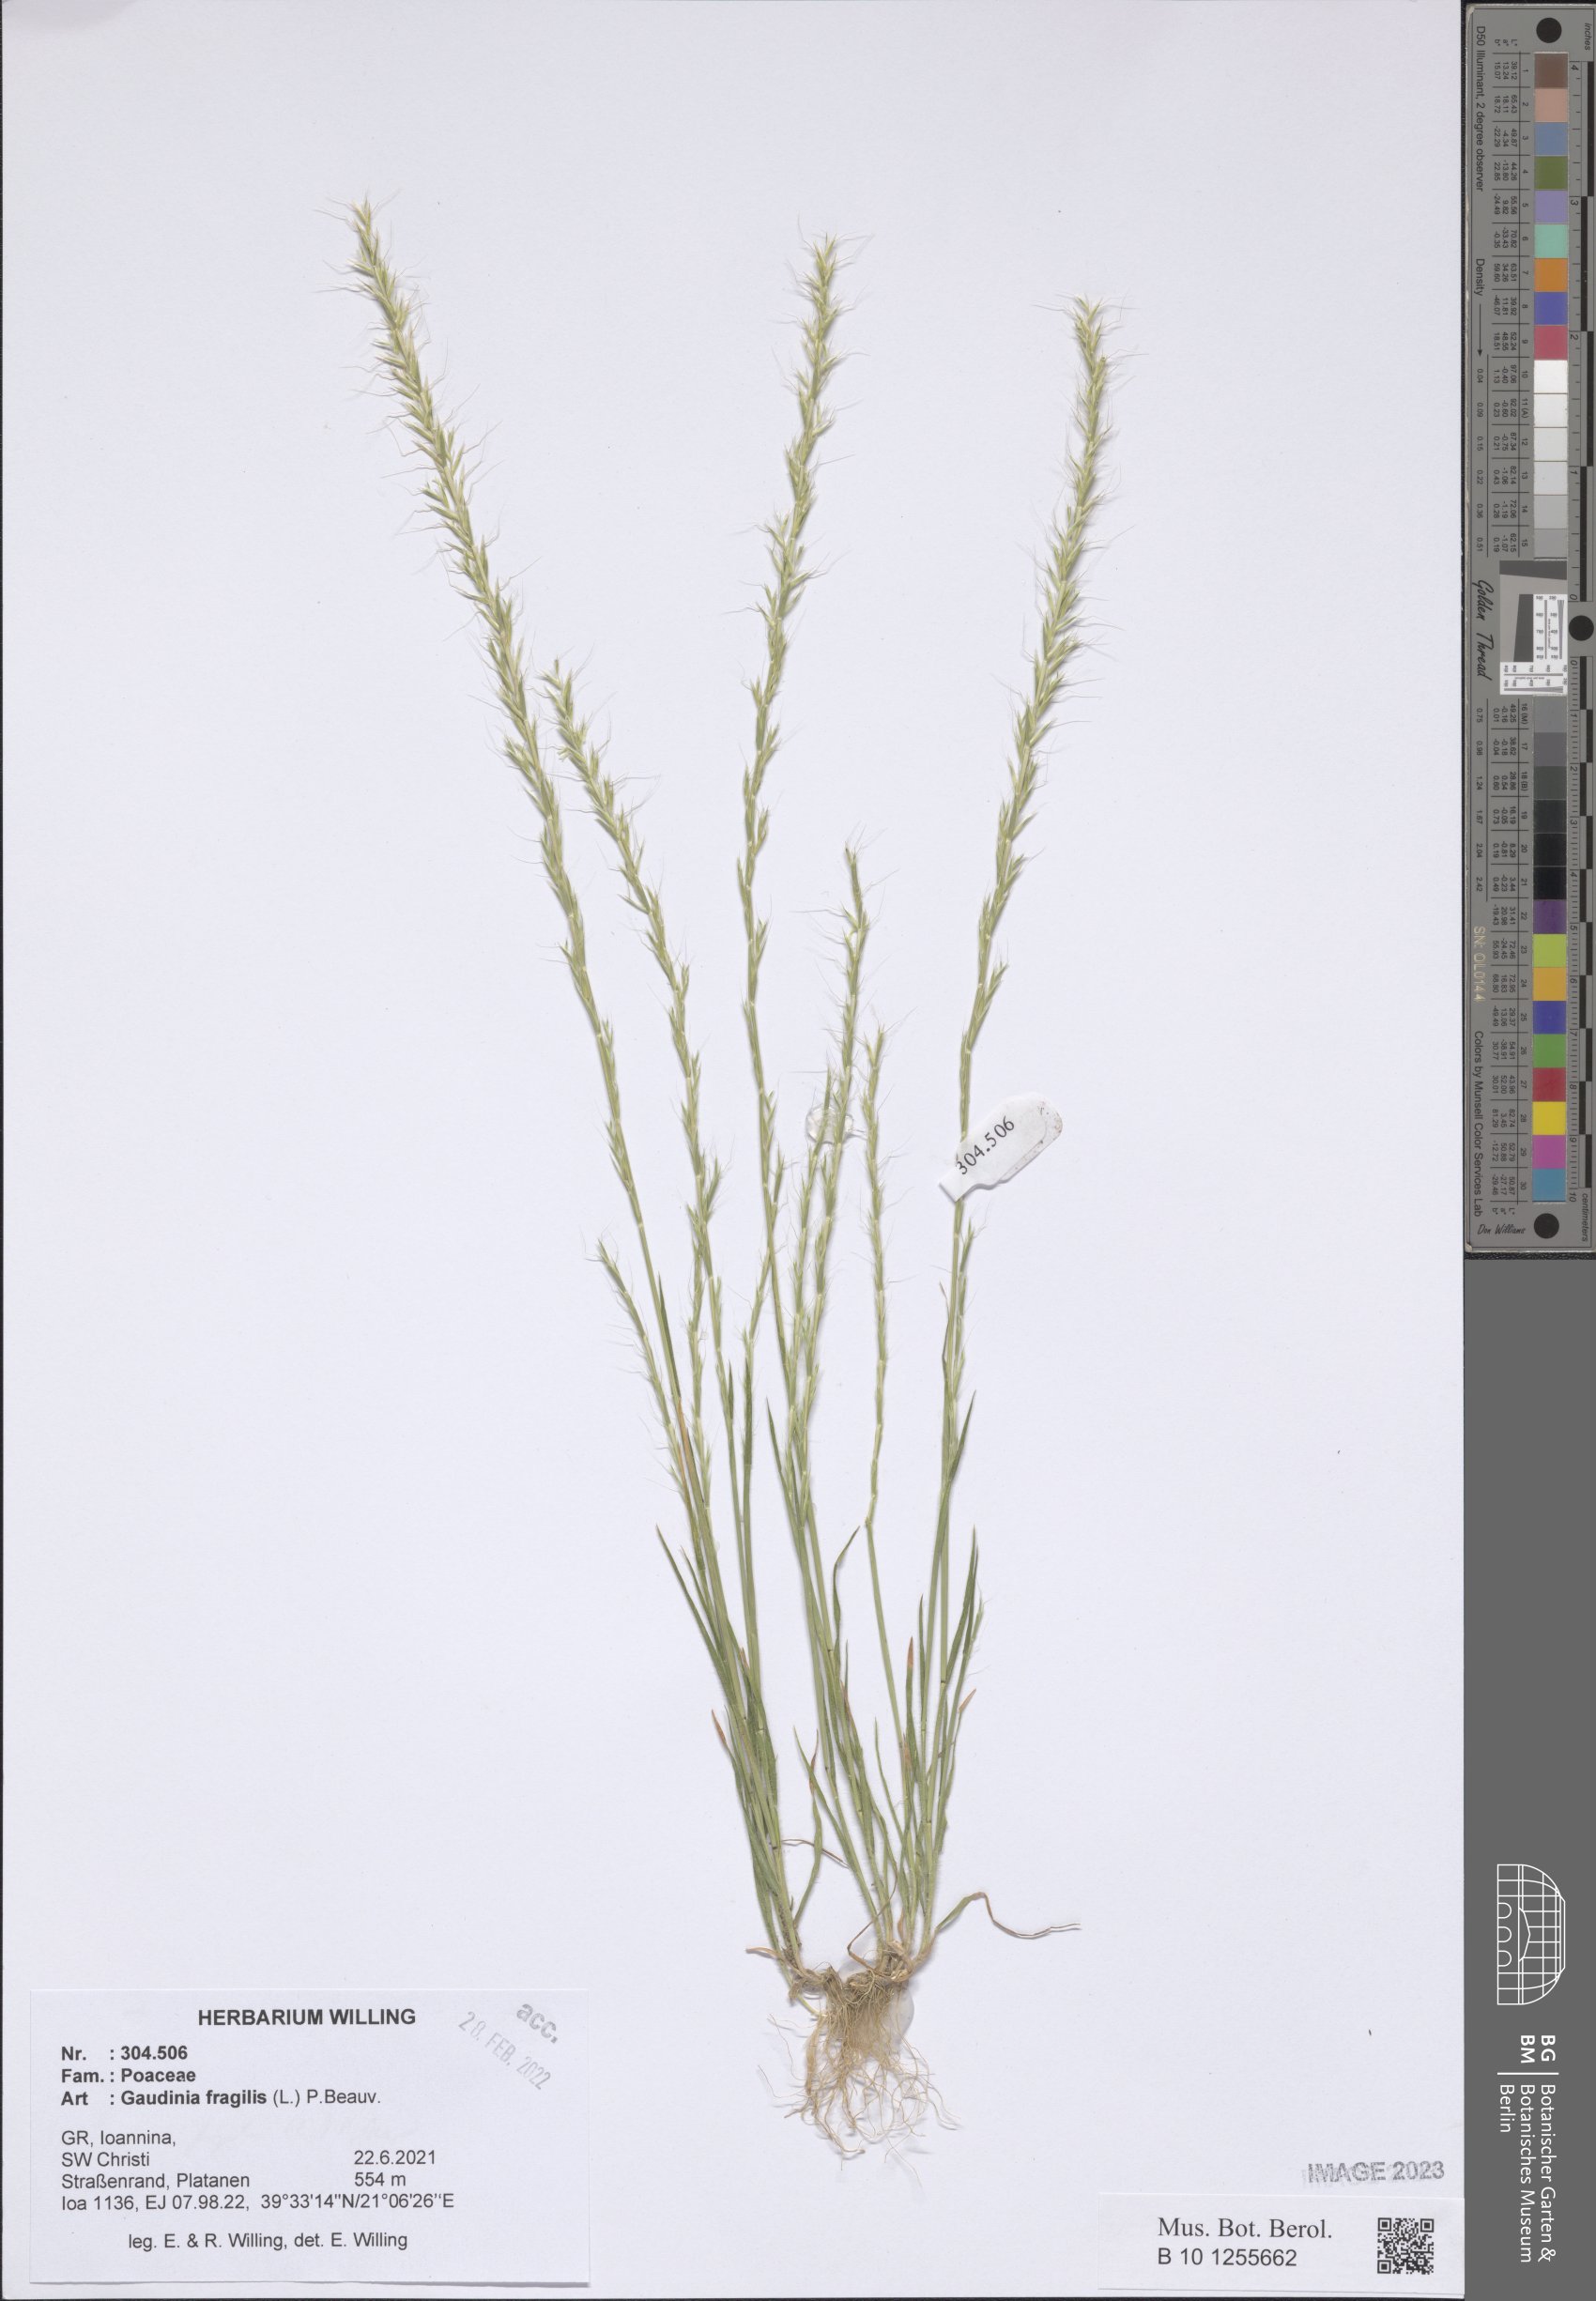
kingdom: Plantae
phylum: Tracheophyta
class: Liliopsida
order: Poales
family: Poaceae
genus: Gaudinia
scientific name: Gaudinia fragilis
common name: French oat-grass
